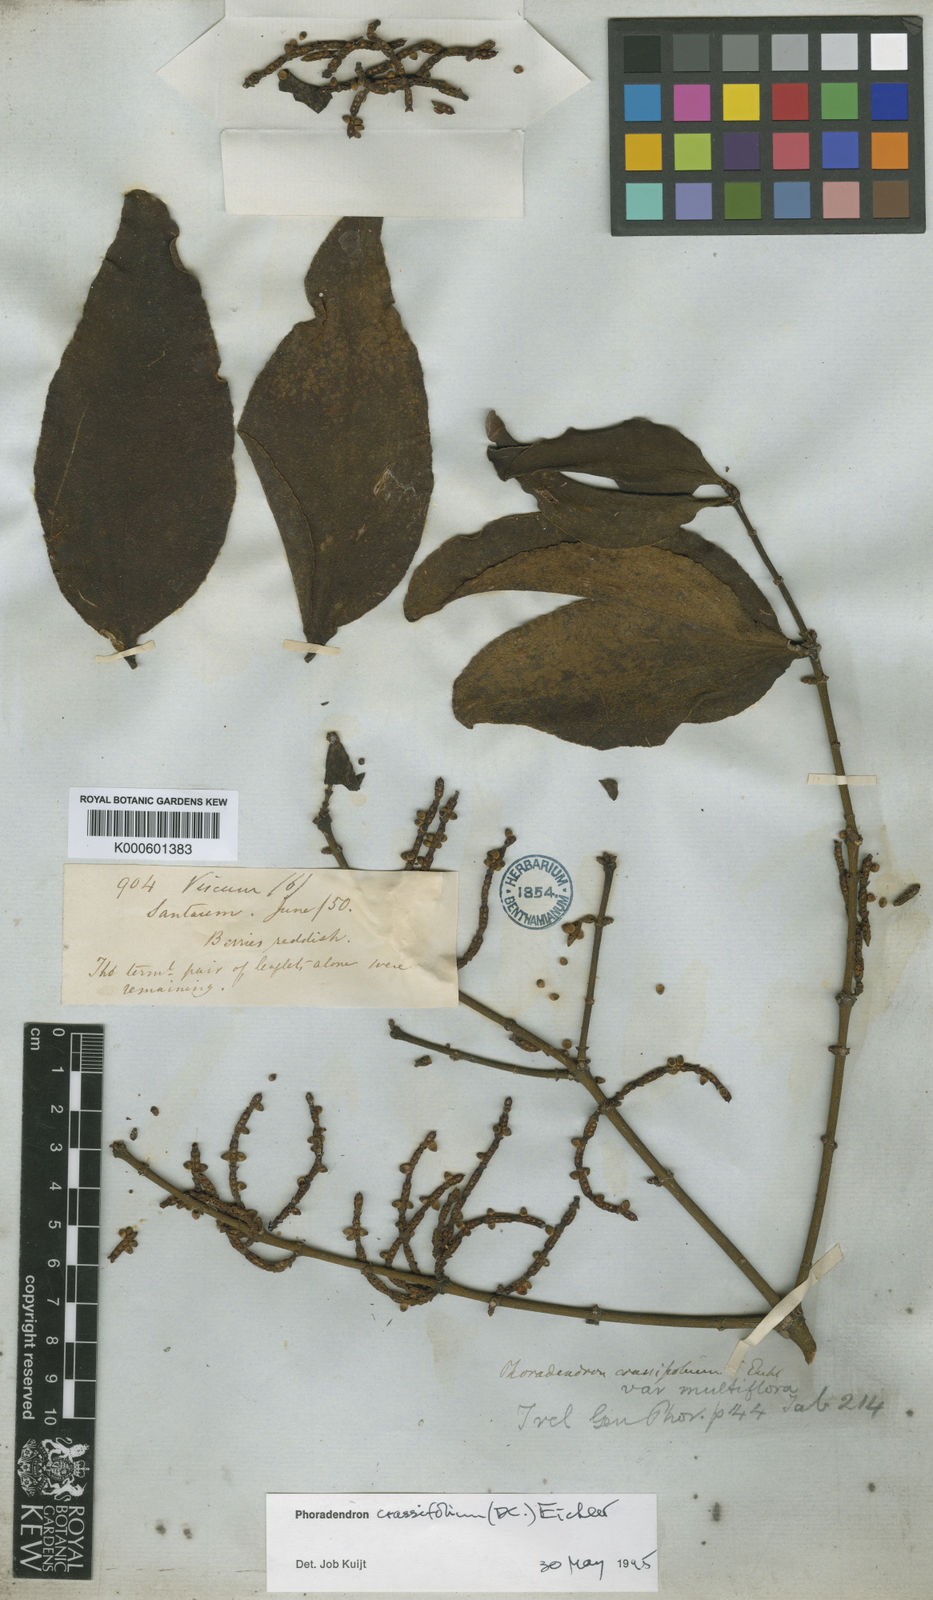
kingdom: Plantae
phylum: Tracheophyta
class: Magnoliopsida
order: Santalales
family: Viscaceae
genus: Phoradendron
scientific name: Phoradendron crassifolium
